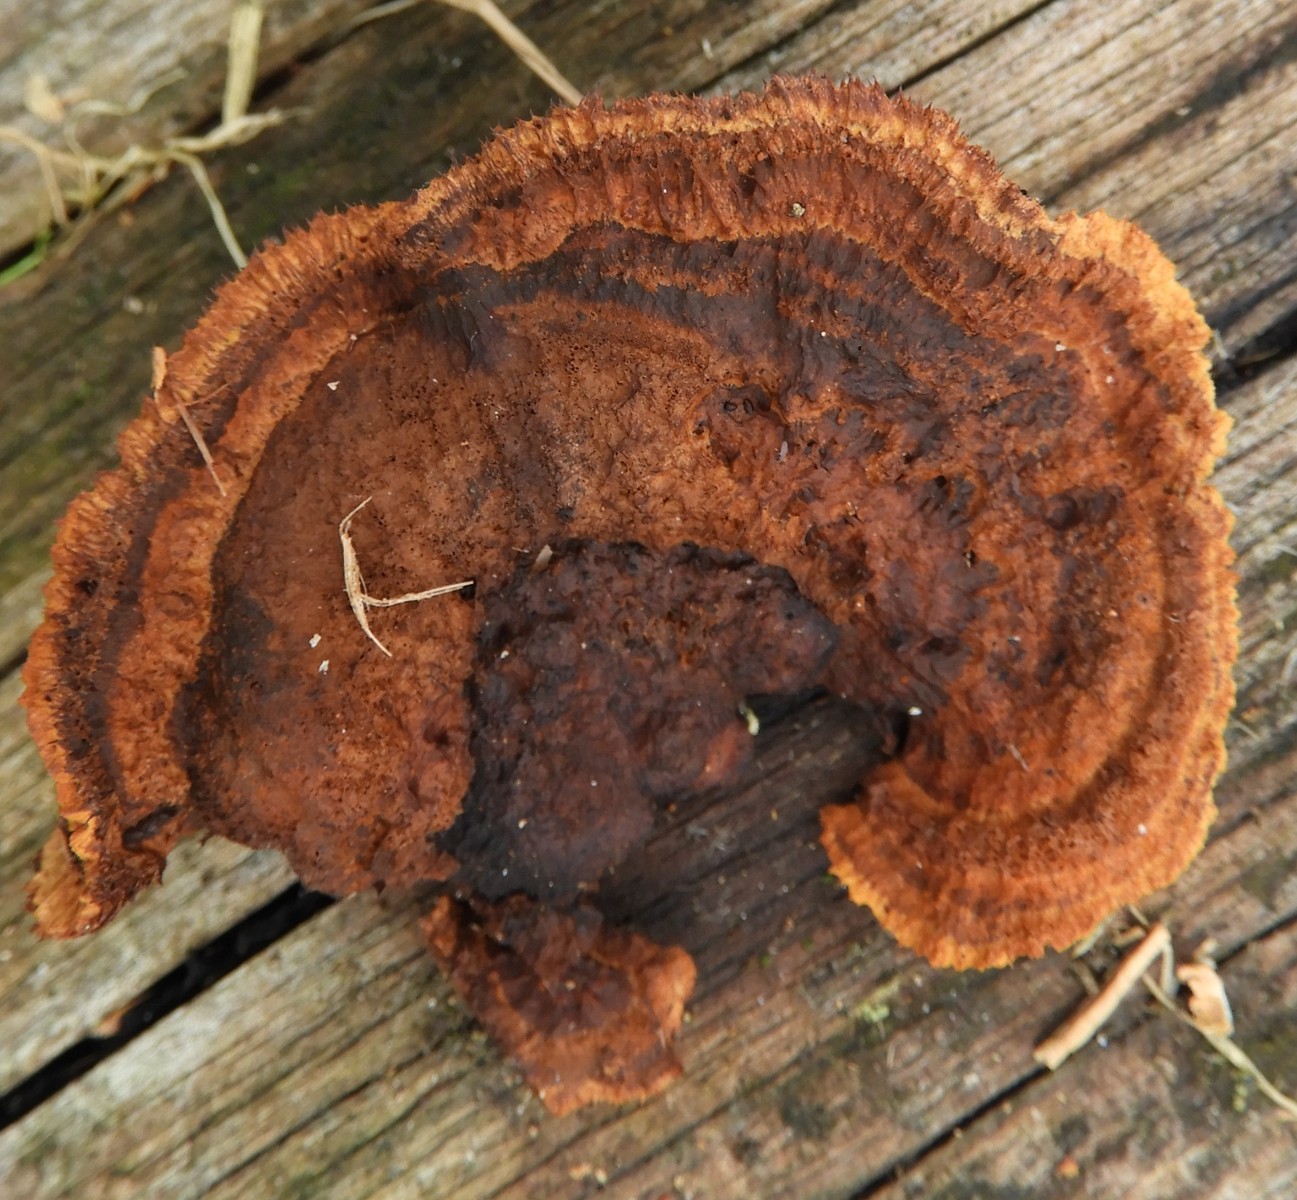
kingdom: Fungi
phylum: Basidiomycota
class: Agaricomycetes
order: Gloeophyllales
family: Gloeophyllaceae
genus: Gloeophyllum
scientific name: Gloeophyllum sepiarium
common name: fyrre-korkhat
